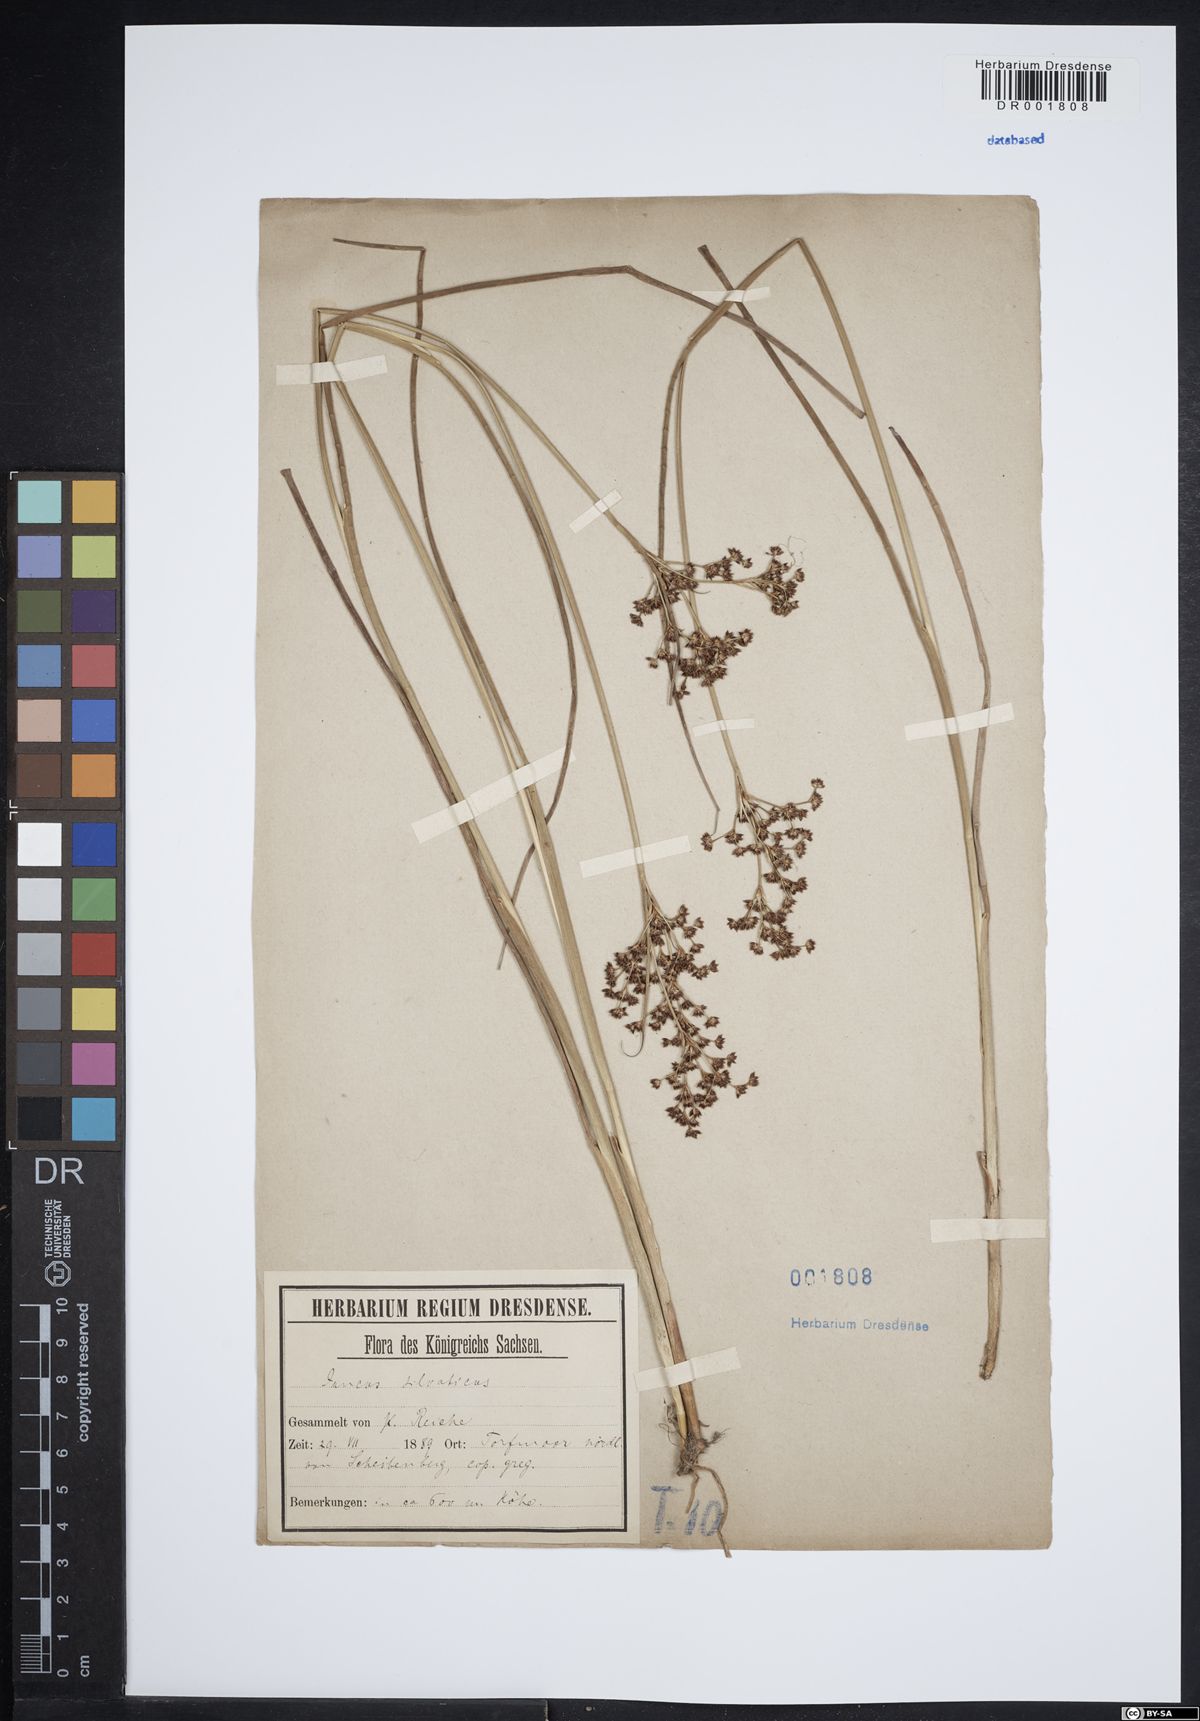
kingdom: Plantae
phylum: Tracheophyta
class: Liliopsida
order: Poales
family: Juncaceae
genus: Juncus
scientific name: Juncus acutiflorus
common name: Sharp-flowered rush
